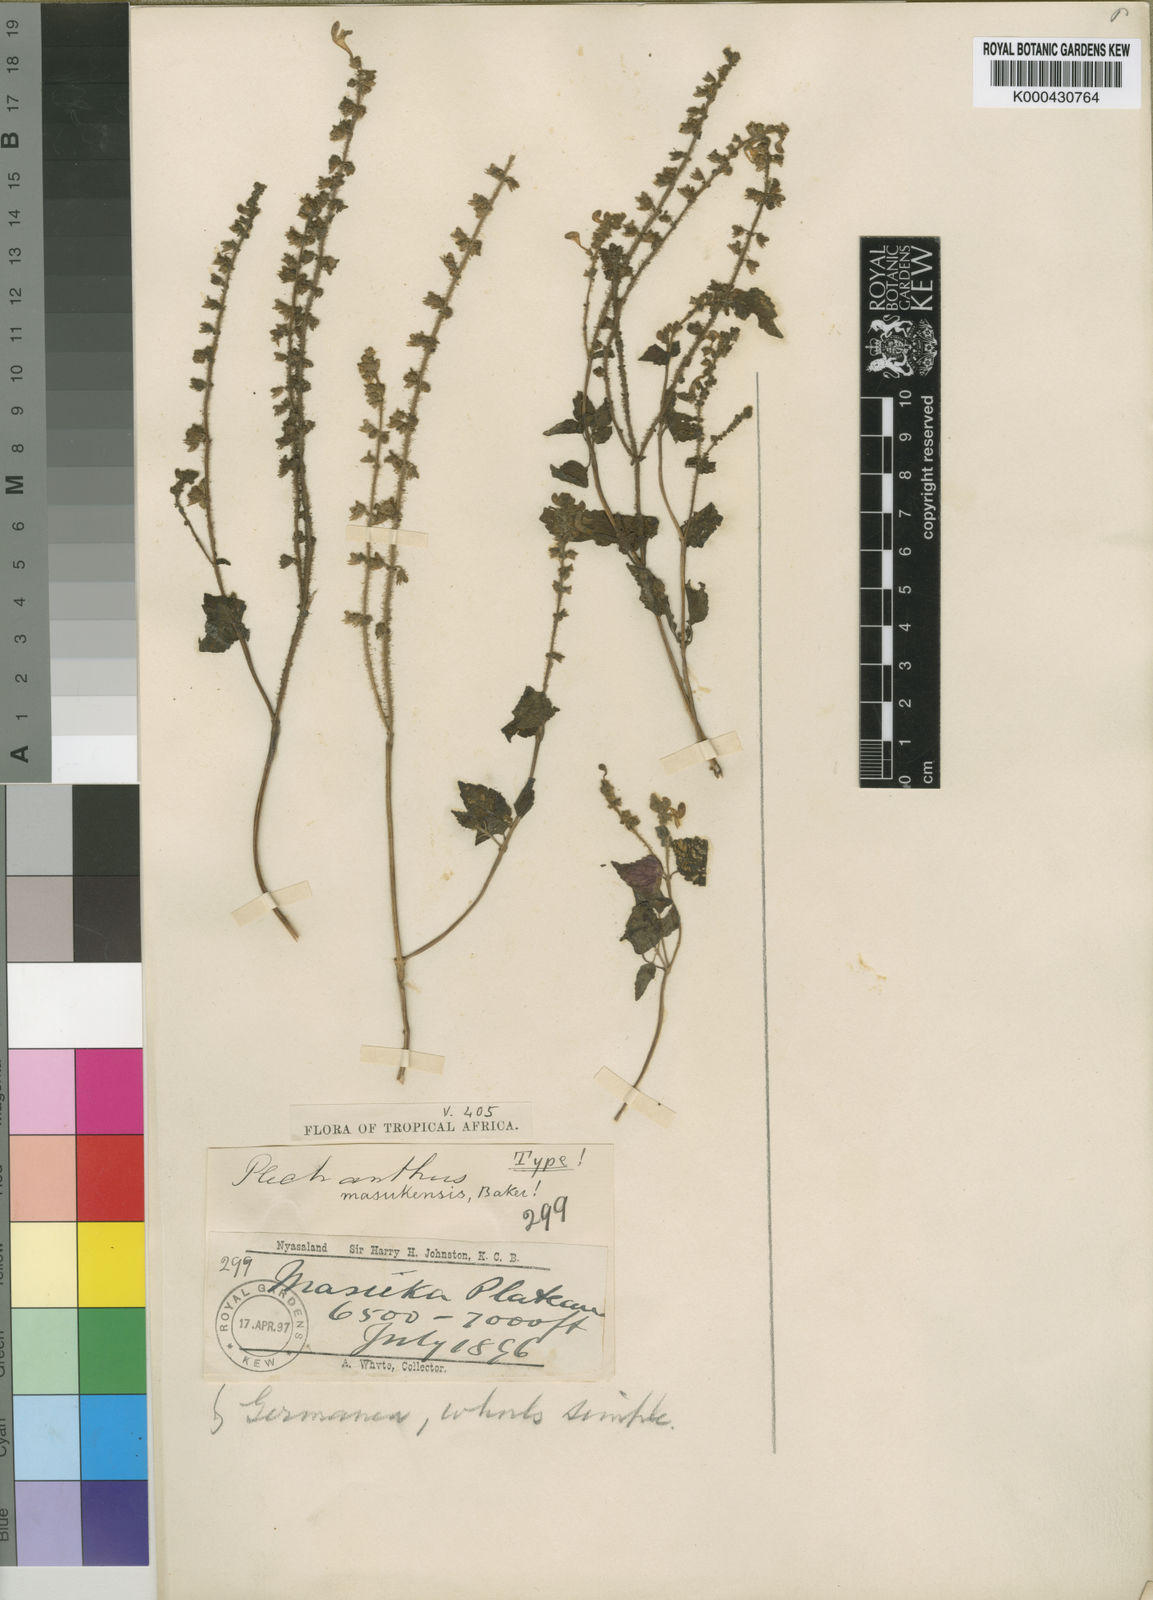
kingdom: Plantae
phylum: Tracheophyta
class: Magnoliopsida
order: Lamiales
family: Lamiaceae
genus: Equilabium
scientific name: Equilabium masukense
